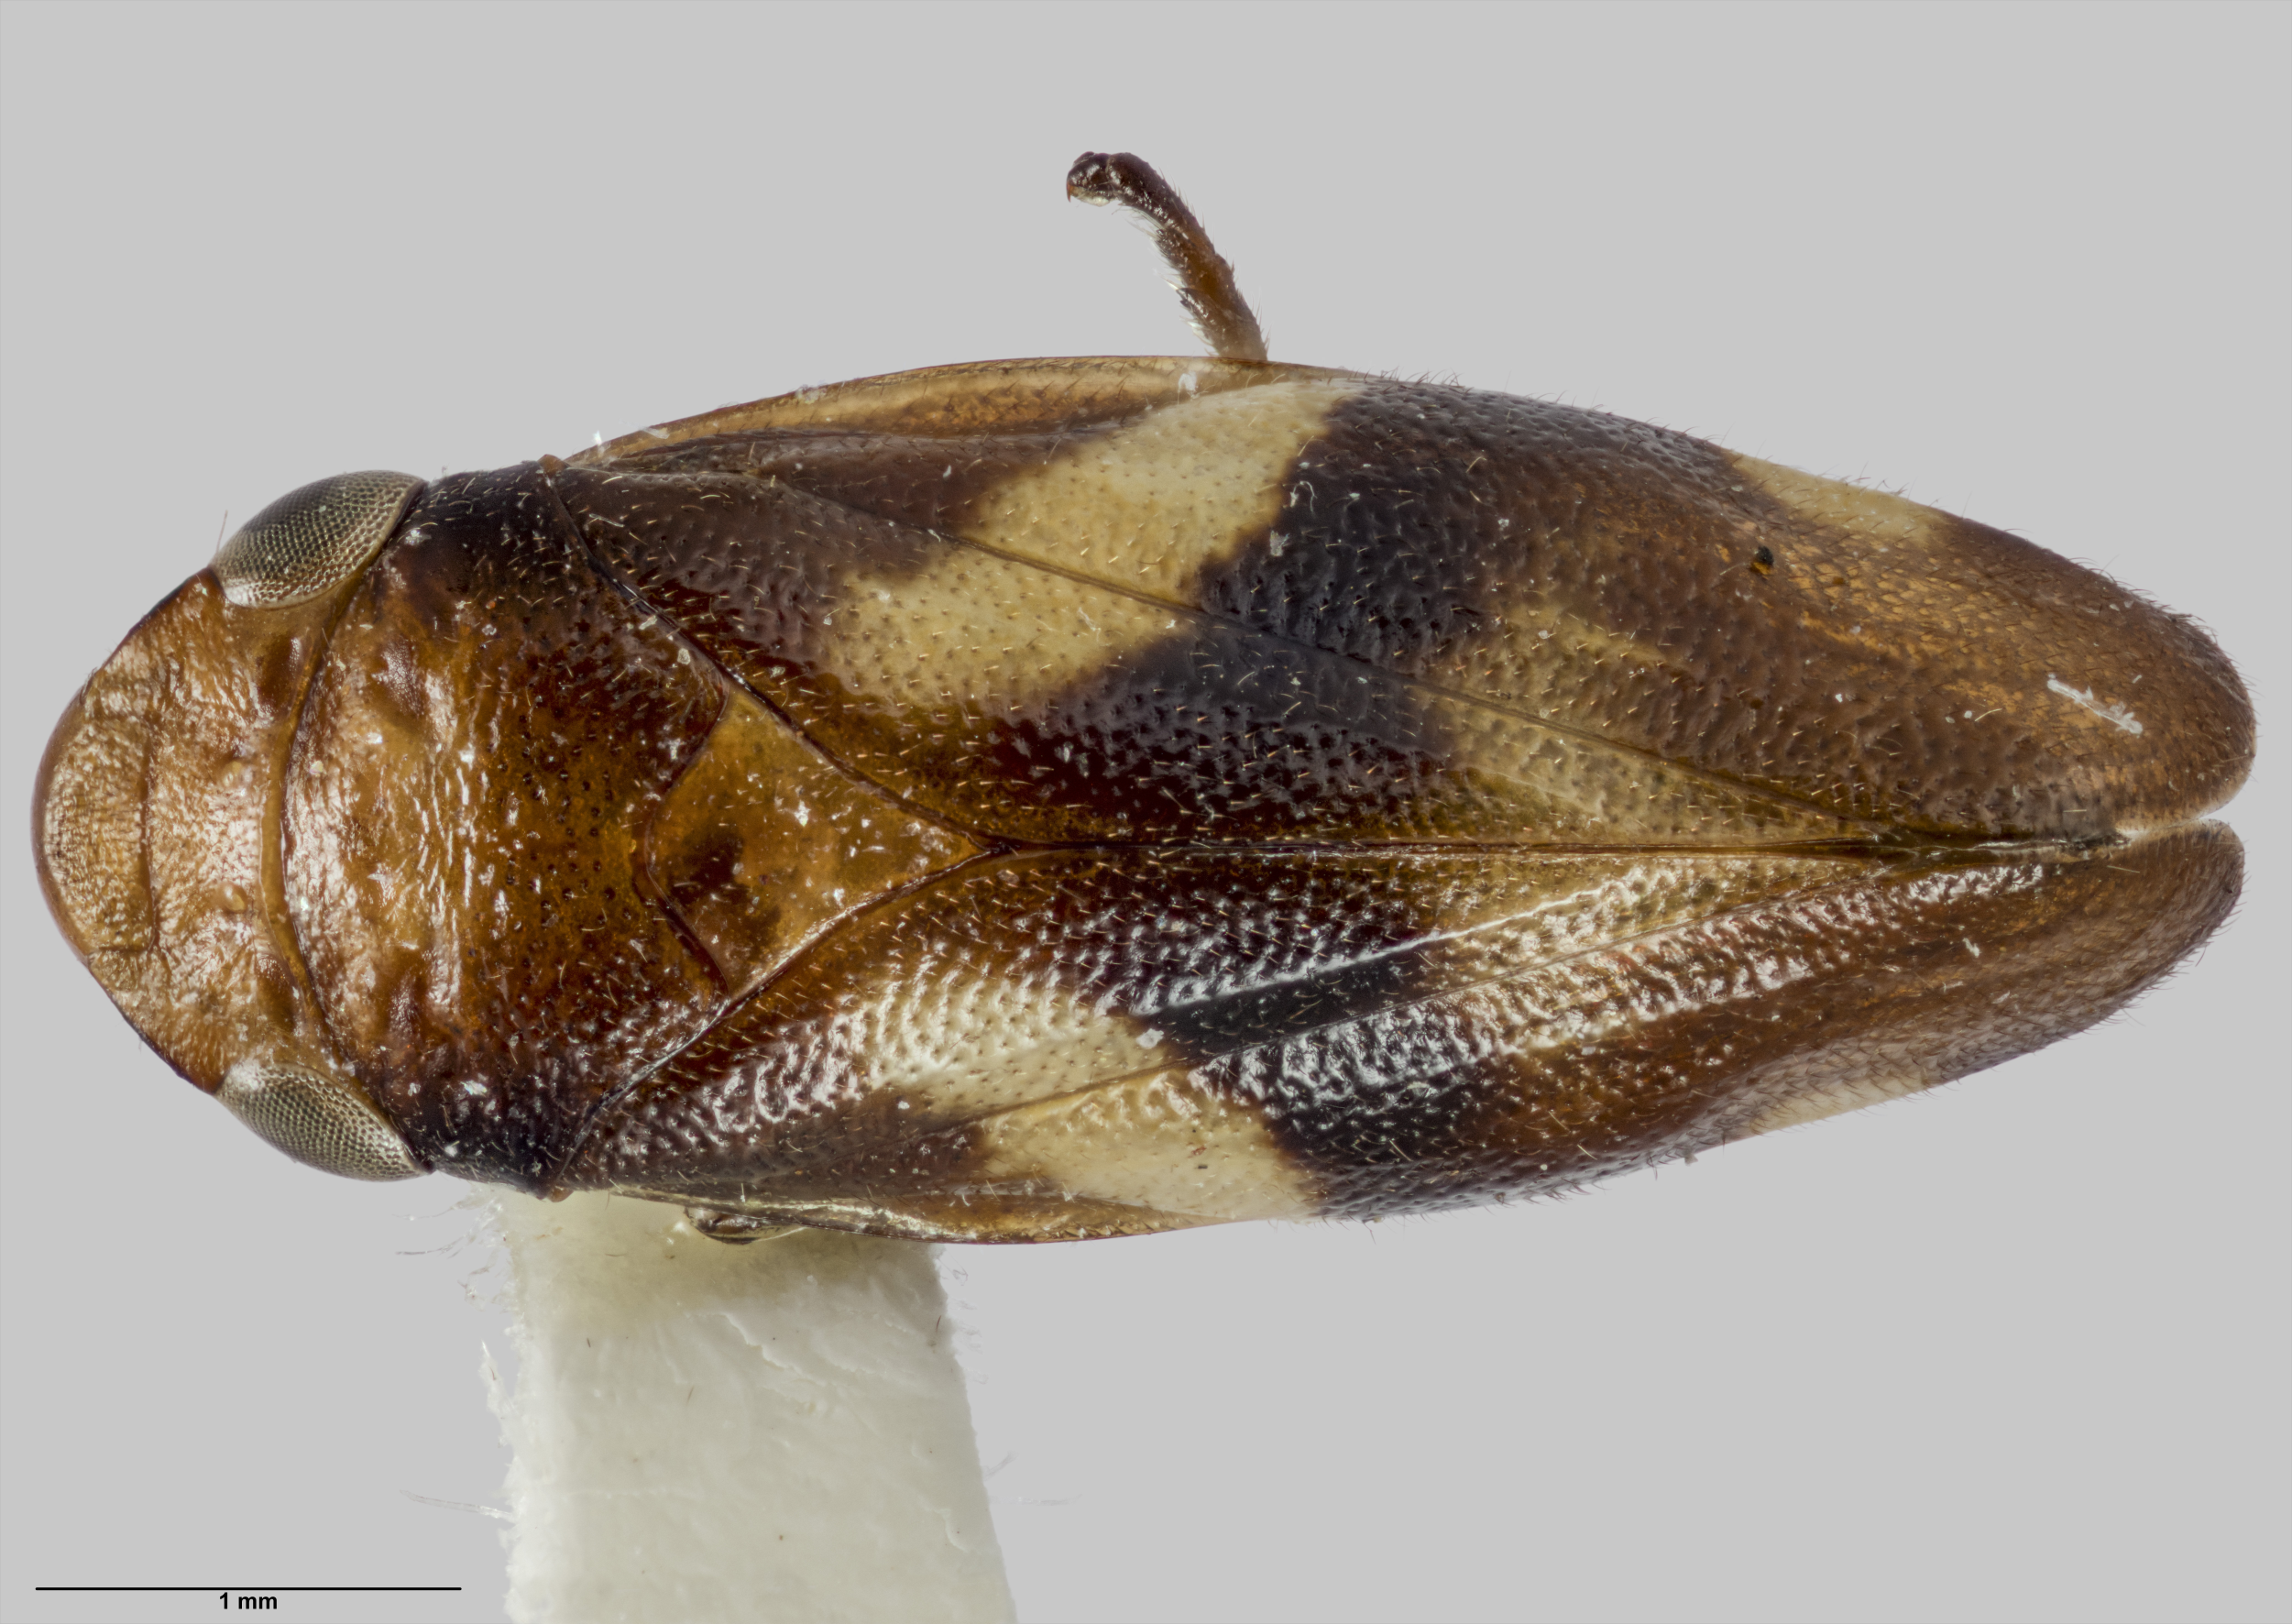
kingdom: Animalia
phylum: Arthropoda
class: Insecta
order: Hemiptera
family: Aphrophoridae
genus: Carystoterpa
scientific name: Carystoterpa minima
